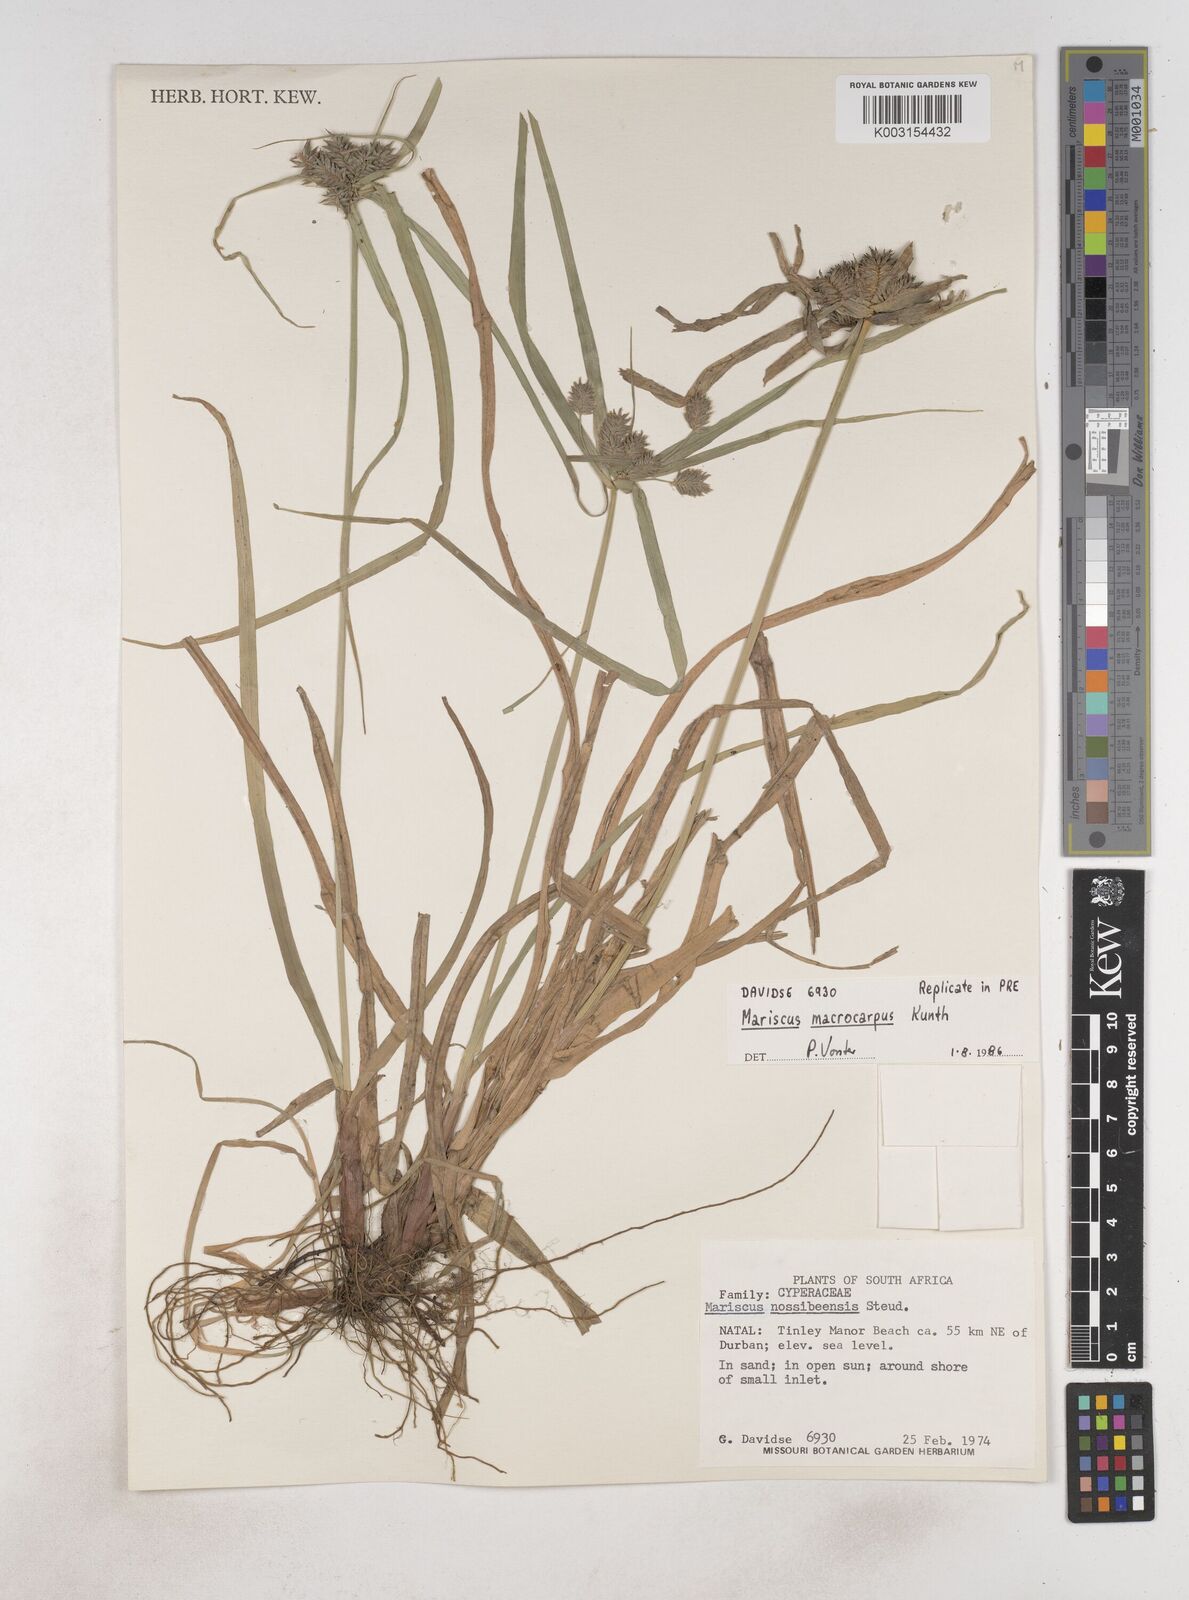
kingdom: Plantae
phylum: Tracheophyta
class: Liliopsida
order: Poales
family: Cyperaceae
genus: Cyperus
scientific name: Cyperus chersinus
